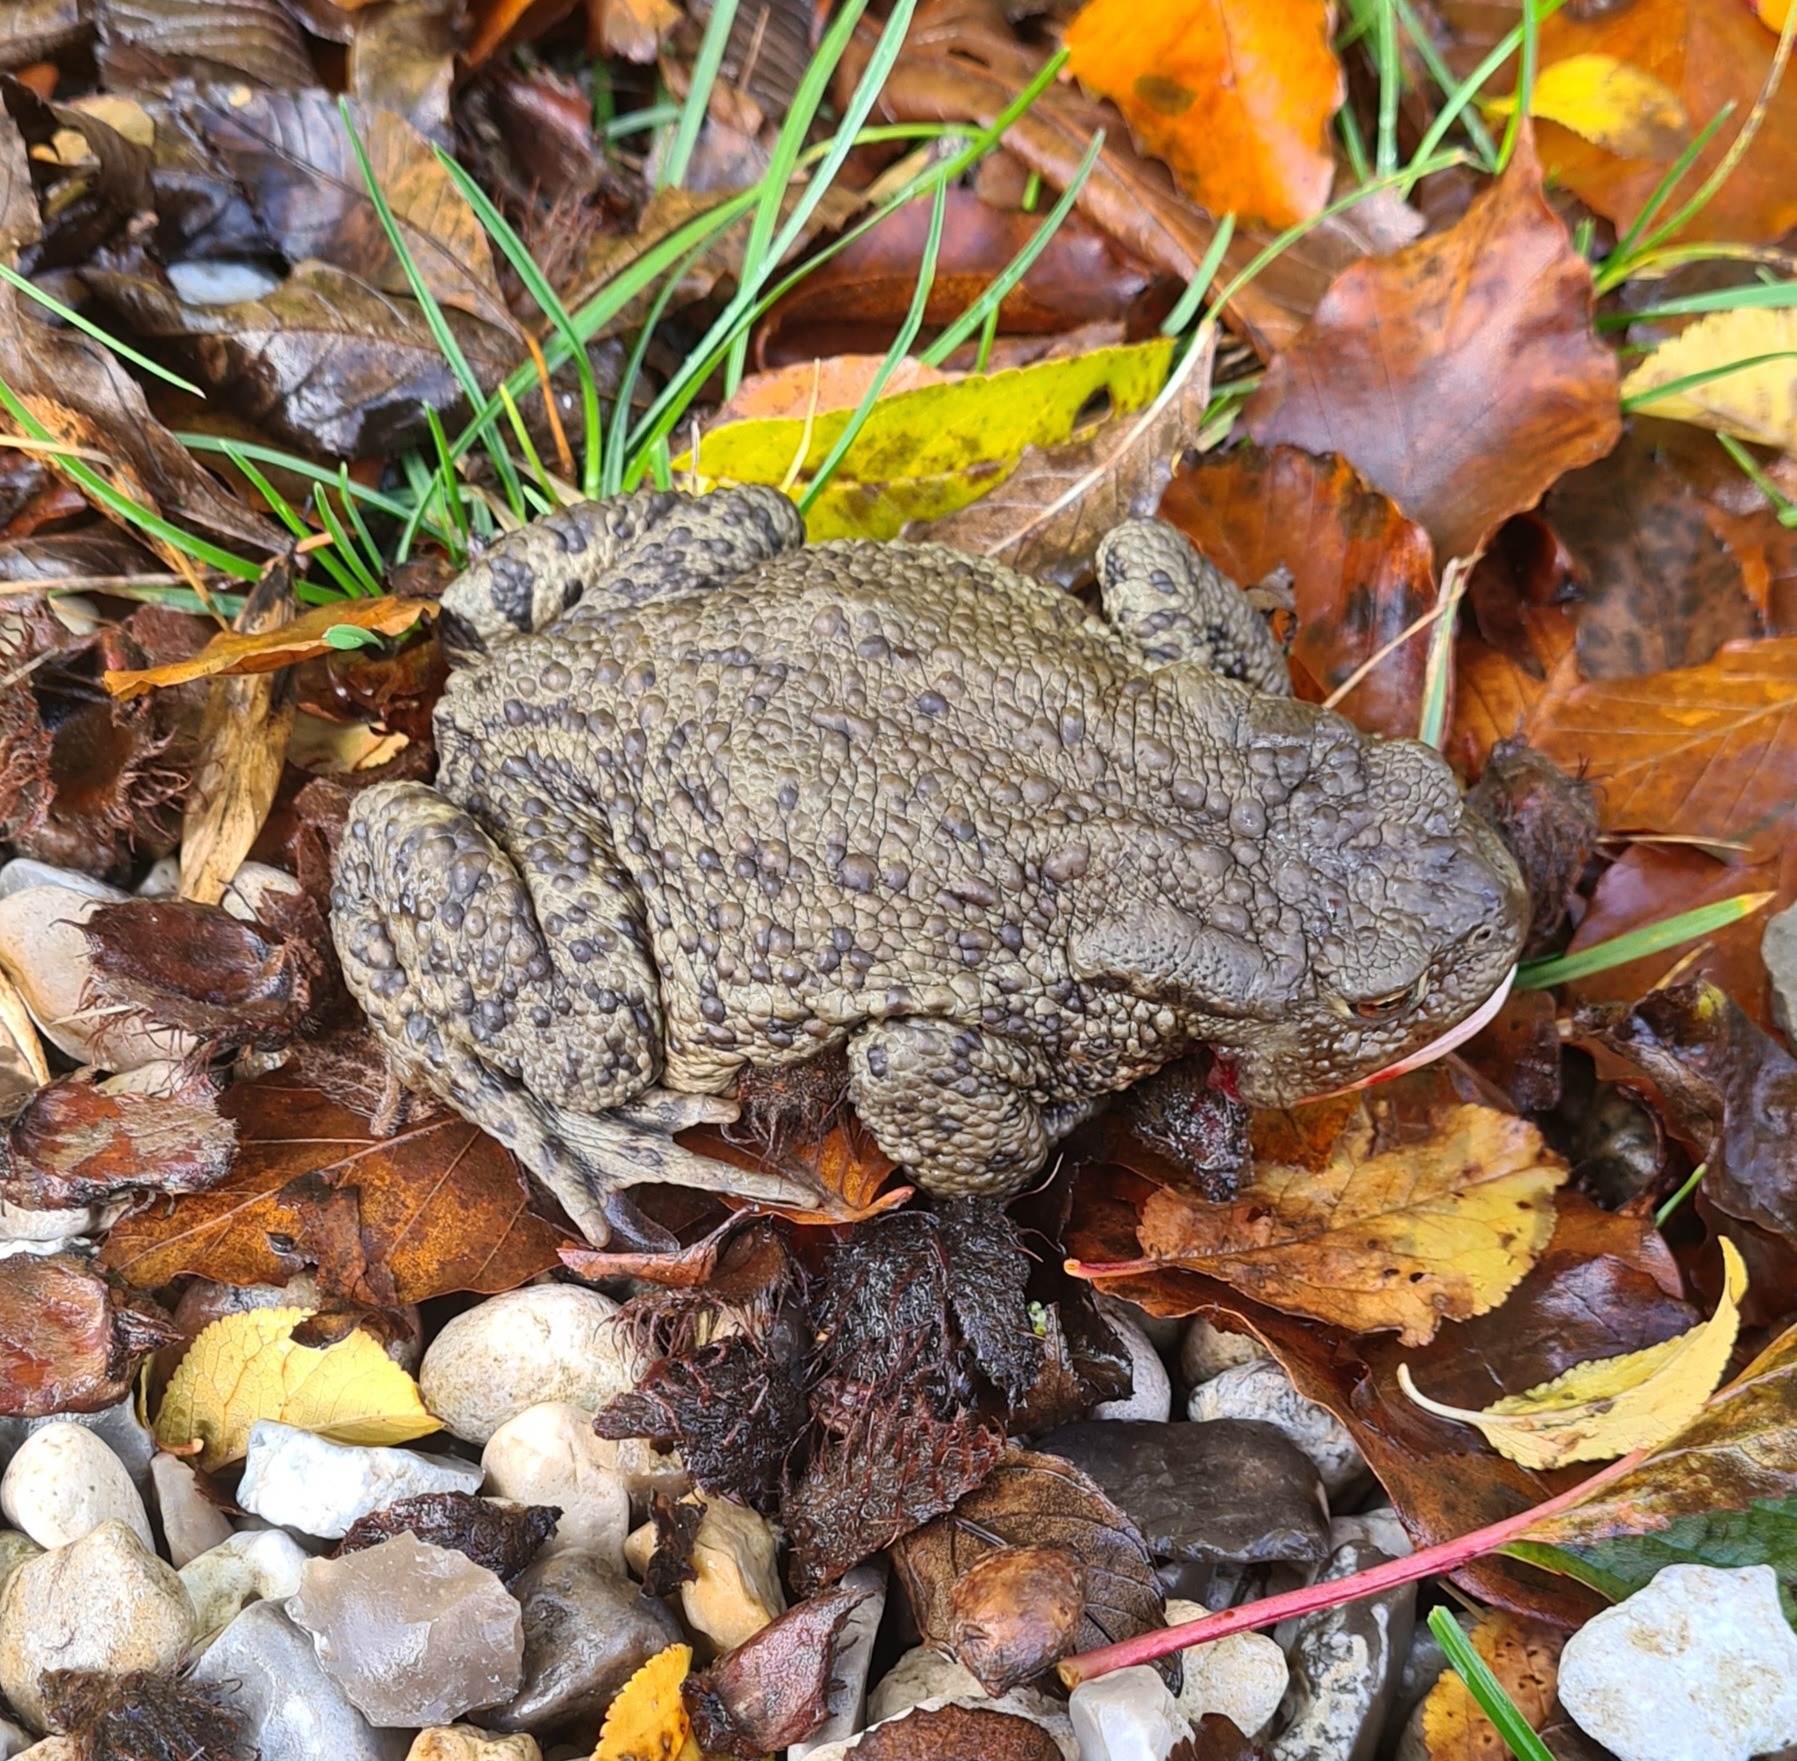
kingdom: Animalia
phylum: Chordata
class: Amphibia
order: Anura
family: Bufonidae
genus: Bufo
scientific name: Bufo bufo
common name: Skrubtudse
